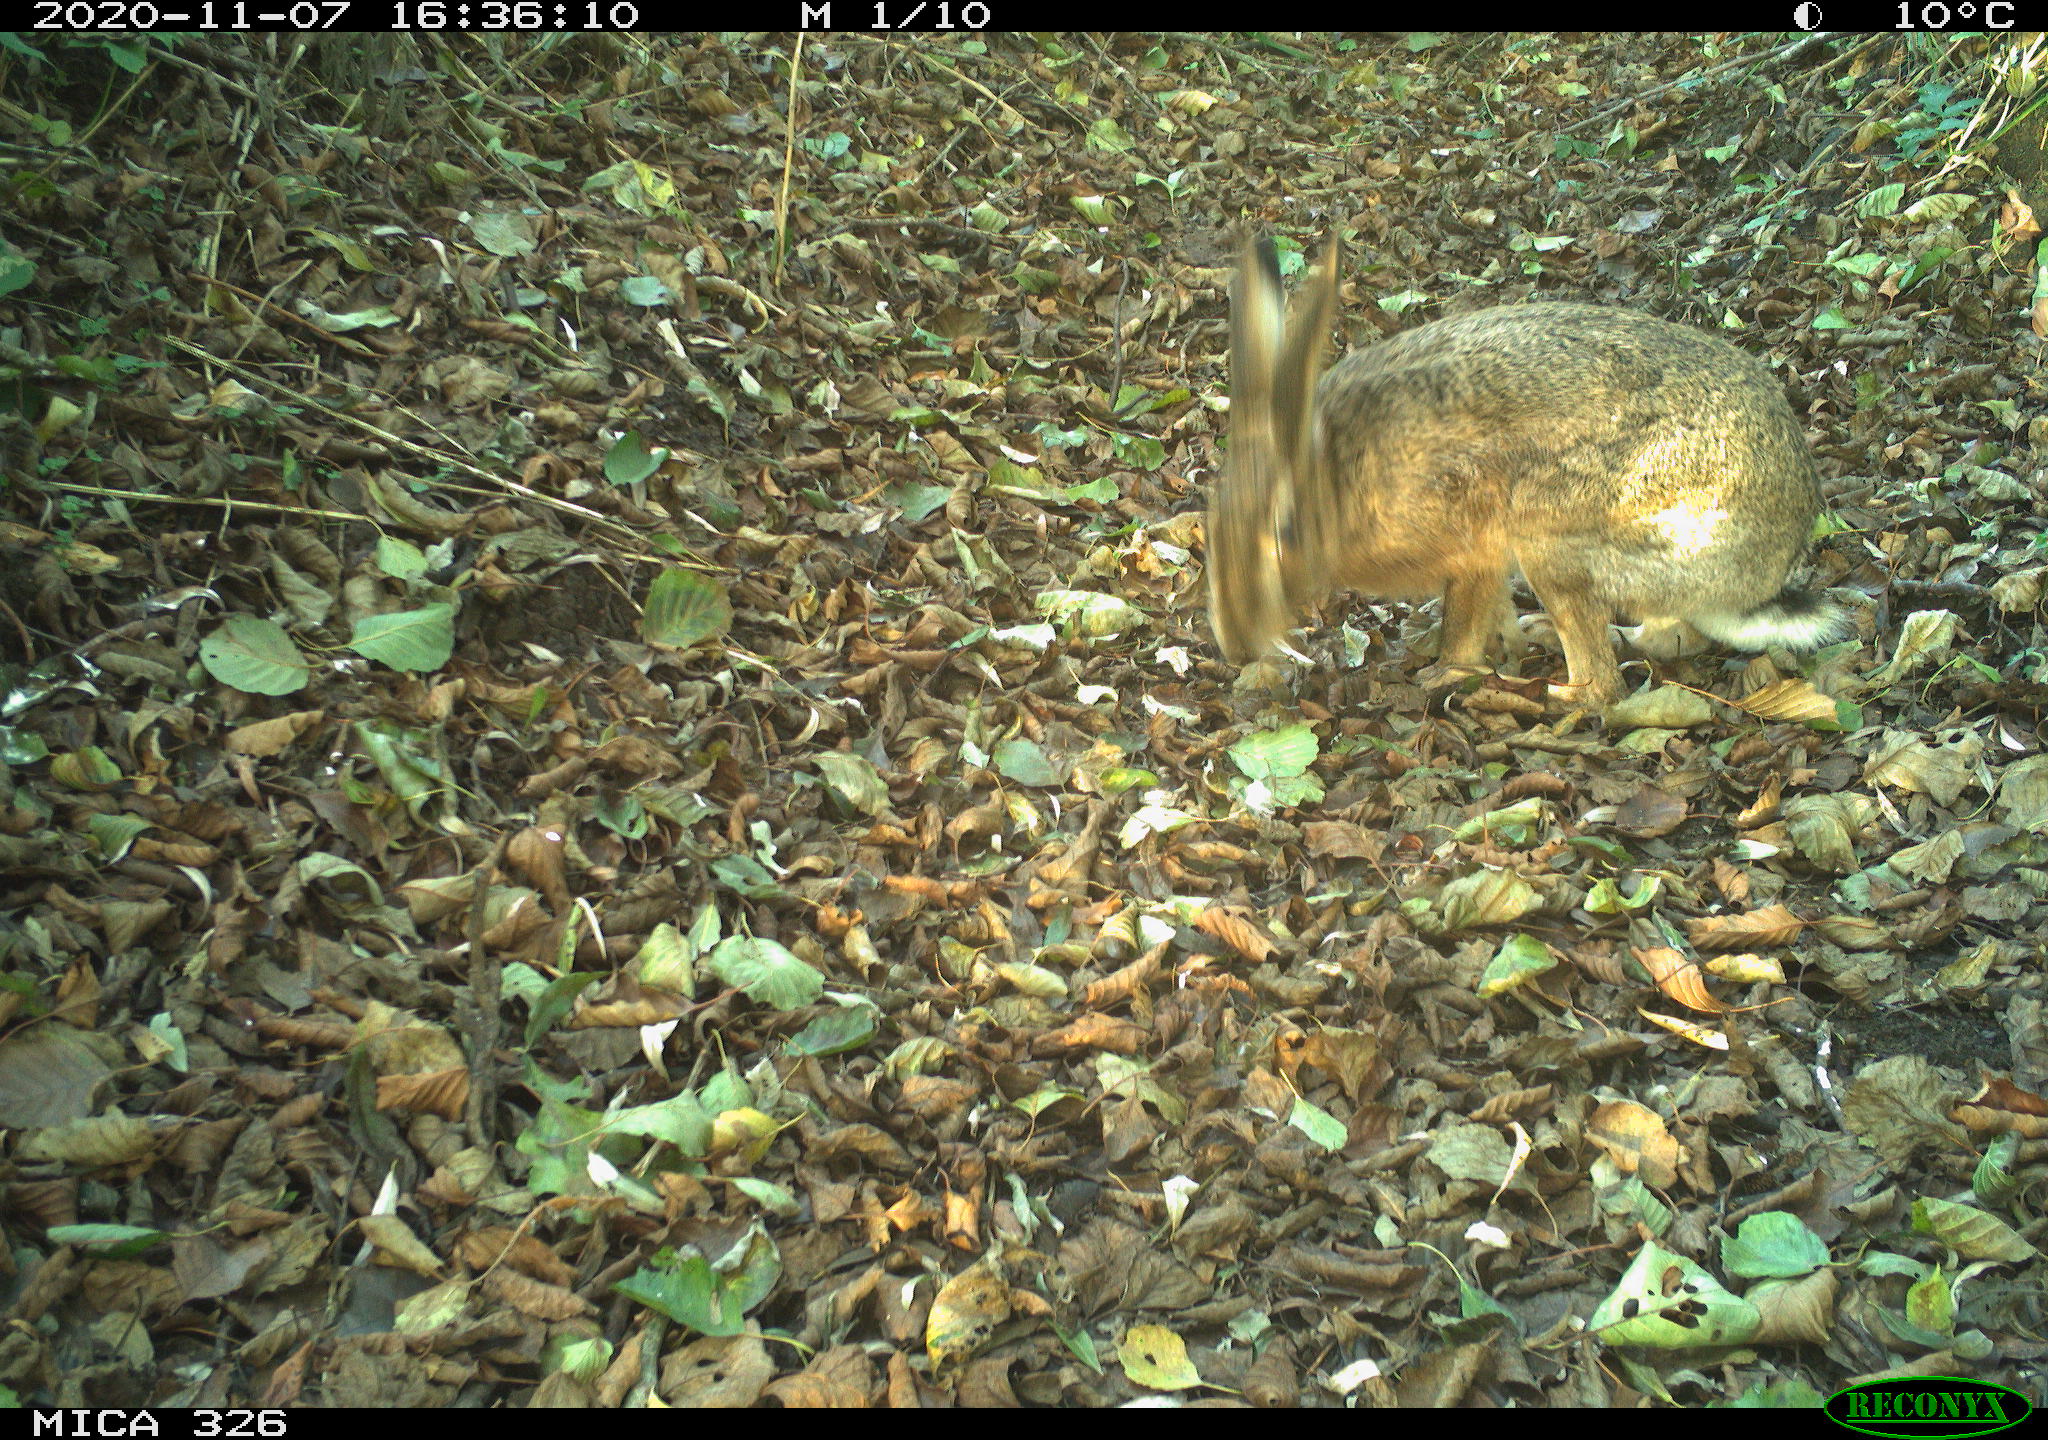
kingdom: Animalia
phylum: Chordata
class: Mammalia
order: Lagomorpha
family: Leporidae
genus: Lepus
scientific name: Lepus europaeus
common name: European hare
